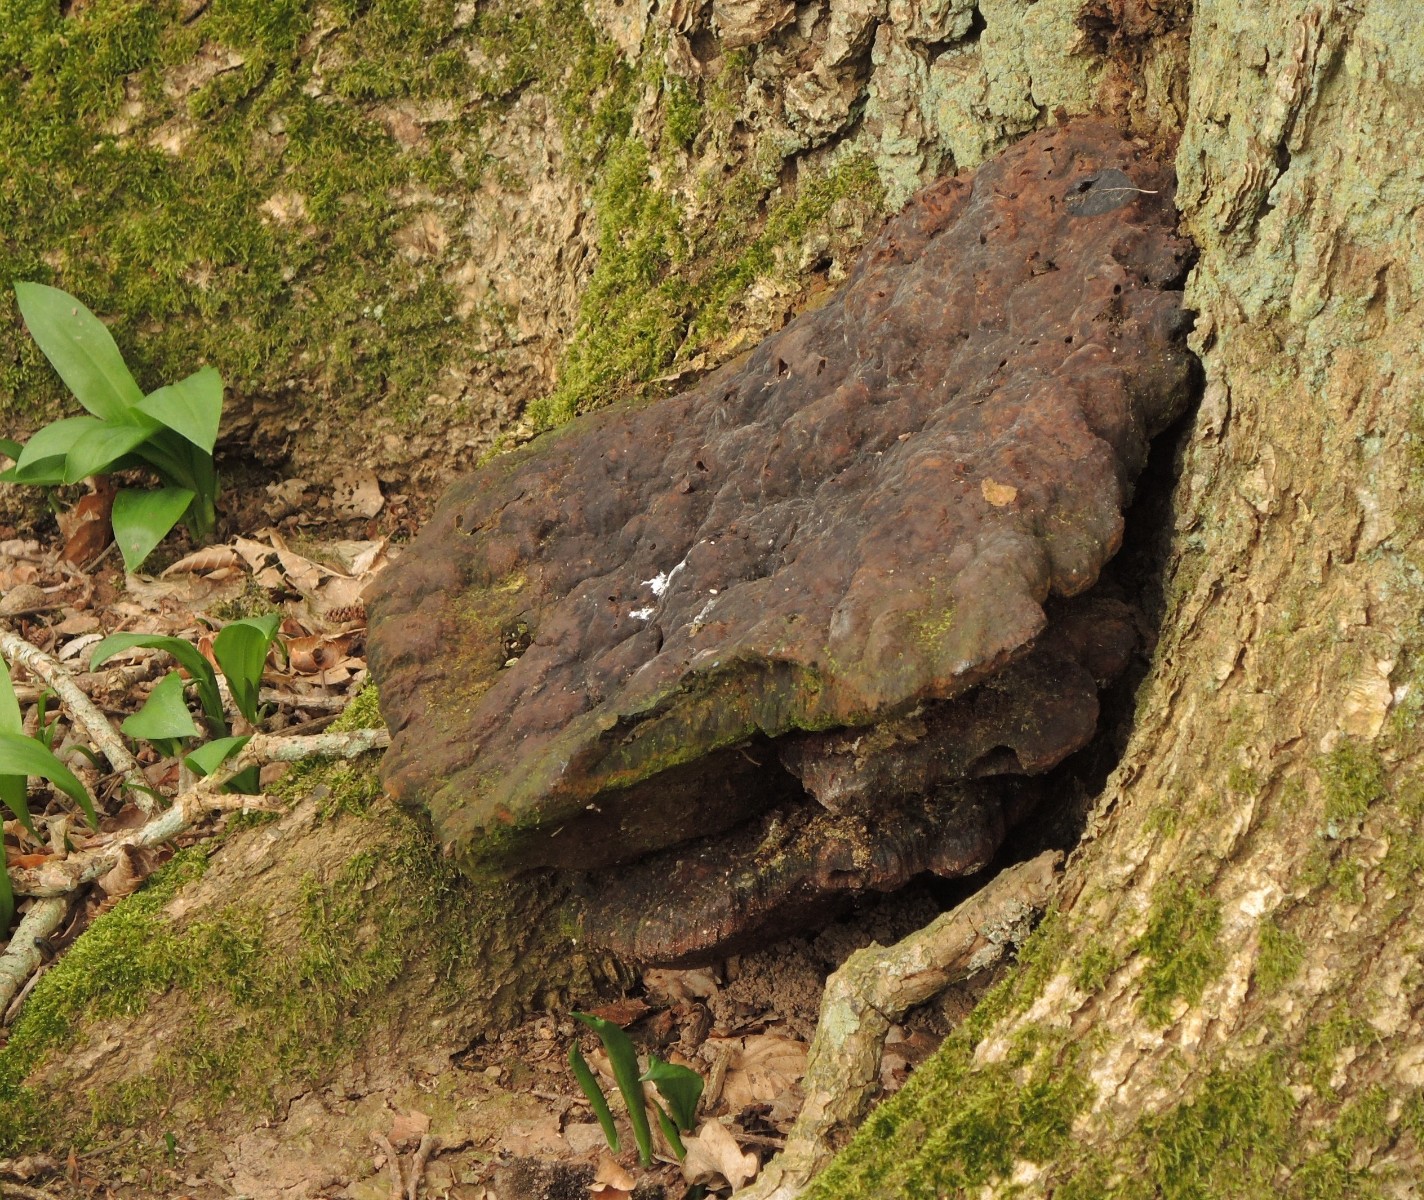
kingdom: Fungi
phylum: Basidiomycota
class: Agaricomycetes
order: Hymenochaetales
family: Hymenochaetaceae
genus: Pseudoinonotus
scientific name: Pseudoinonotus dryadeus
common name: ege-spejlporesvamp
